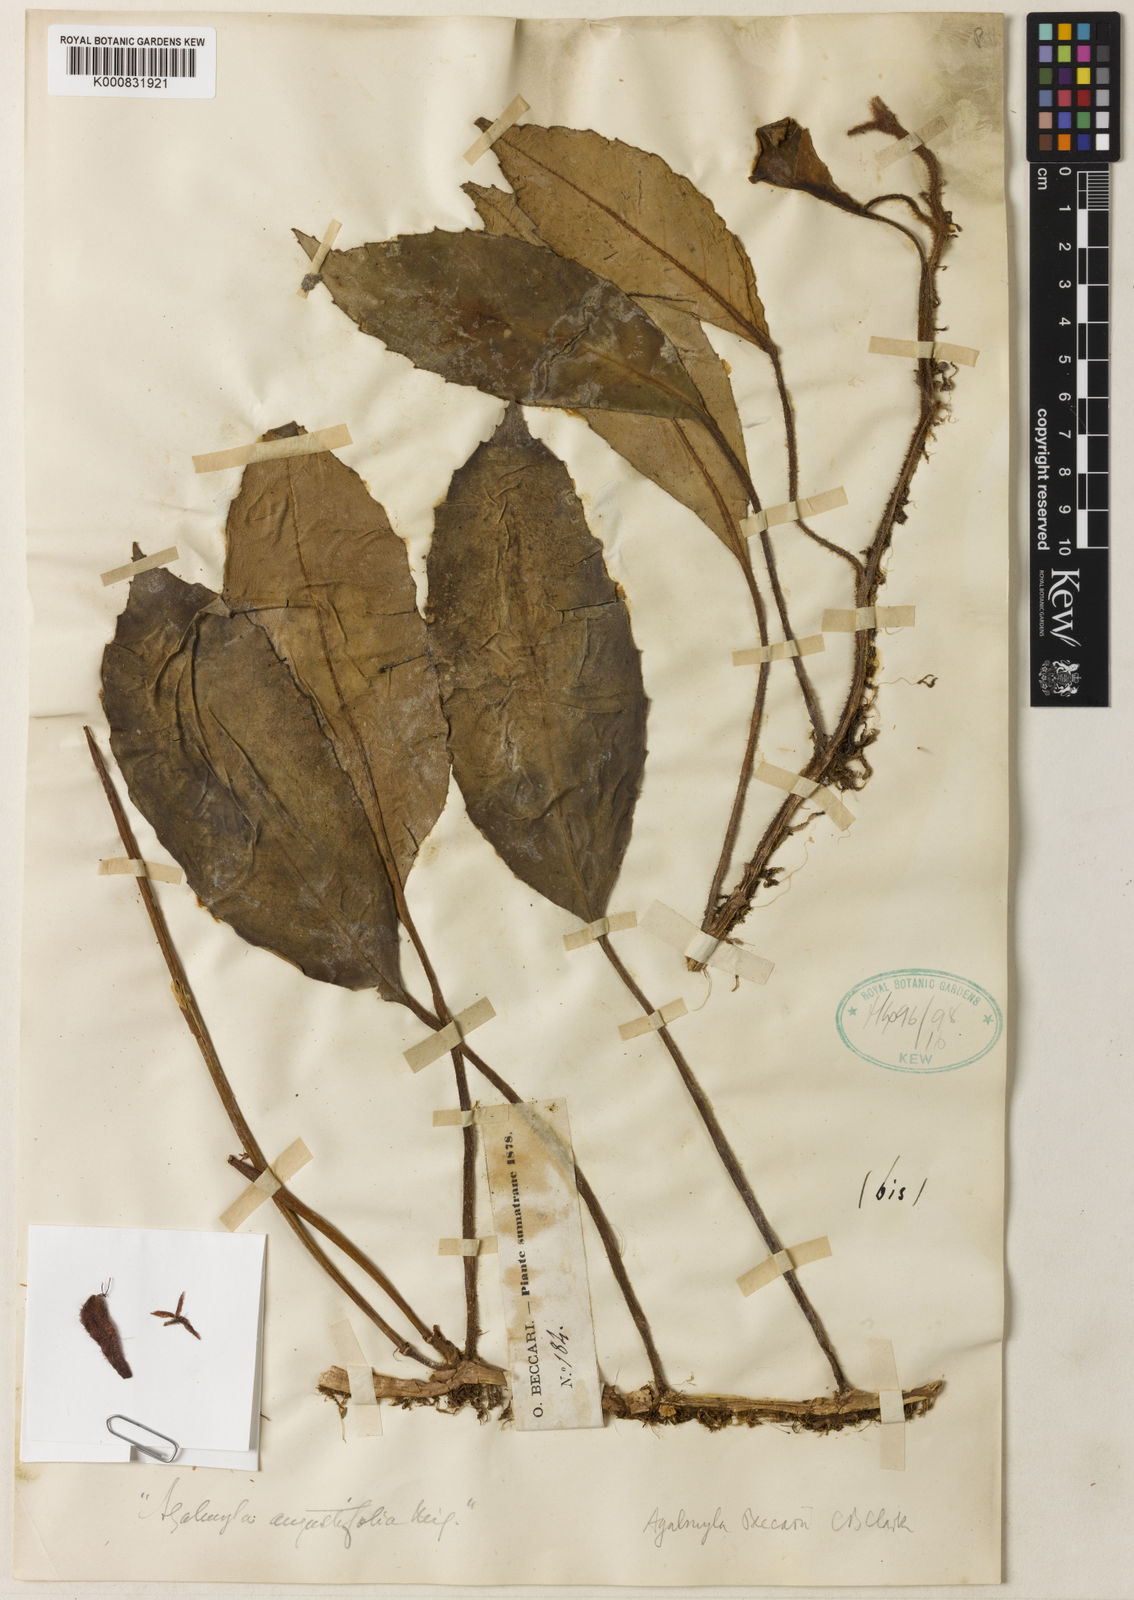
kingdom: Plantae
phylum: Tracheophyta
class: Magnoliopsida
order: Lamiales
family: Gesneriaceae
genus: Agalmyla
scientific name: Agalmyla beccarii
